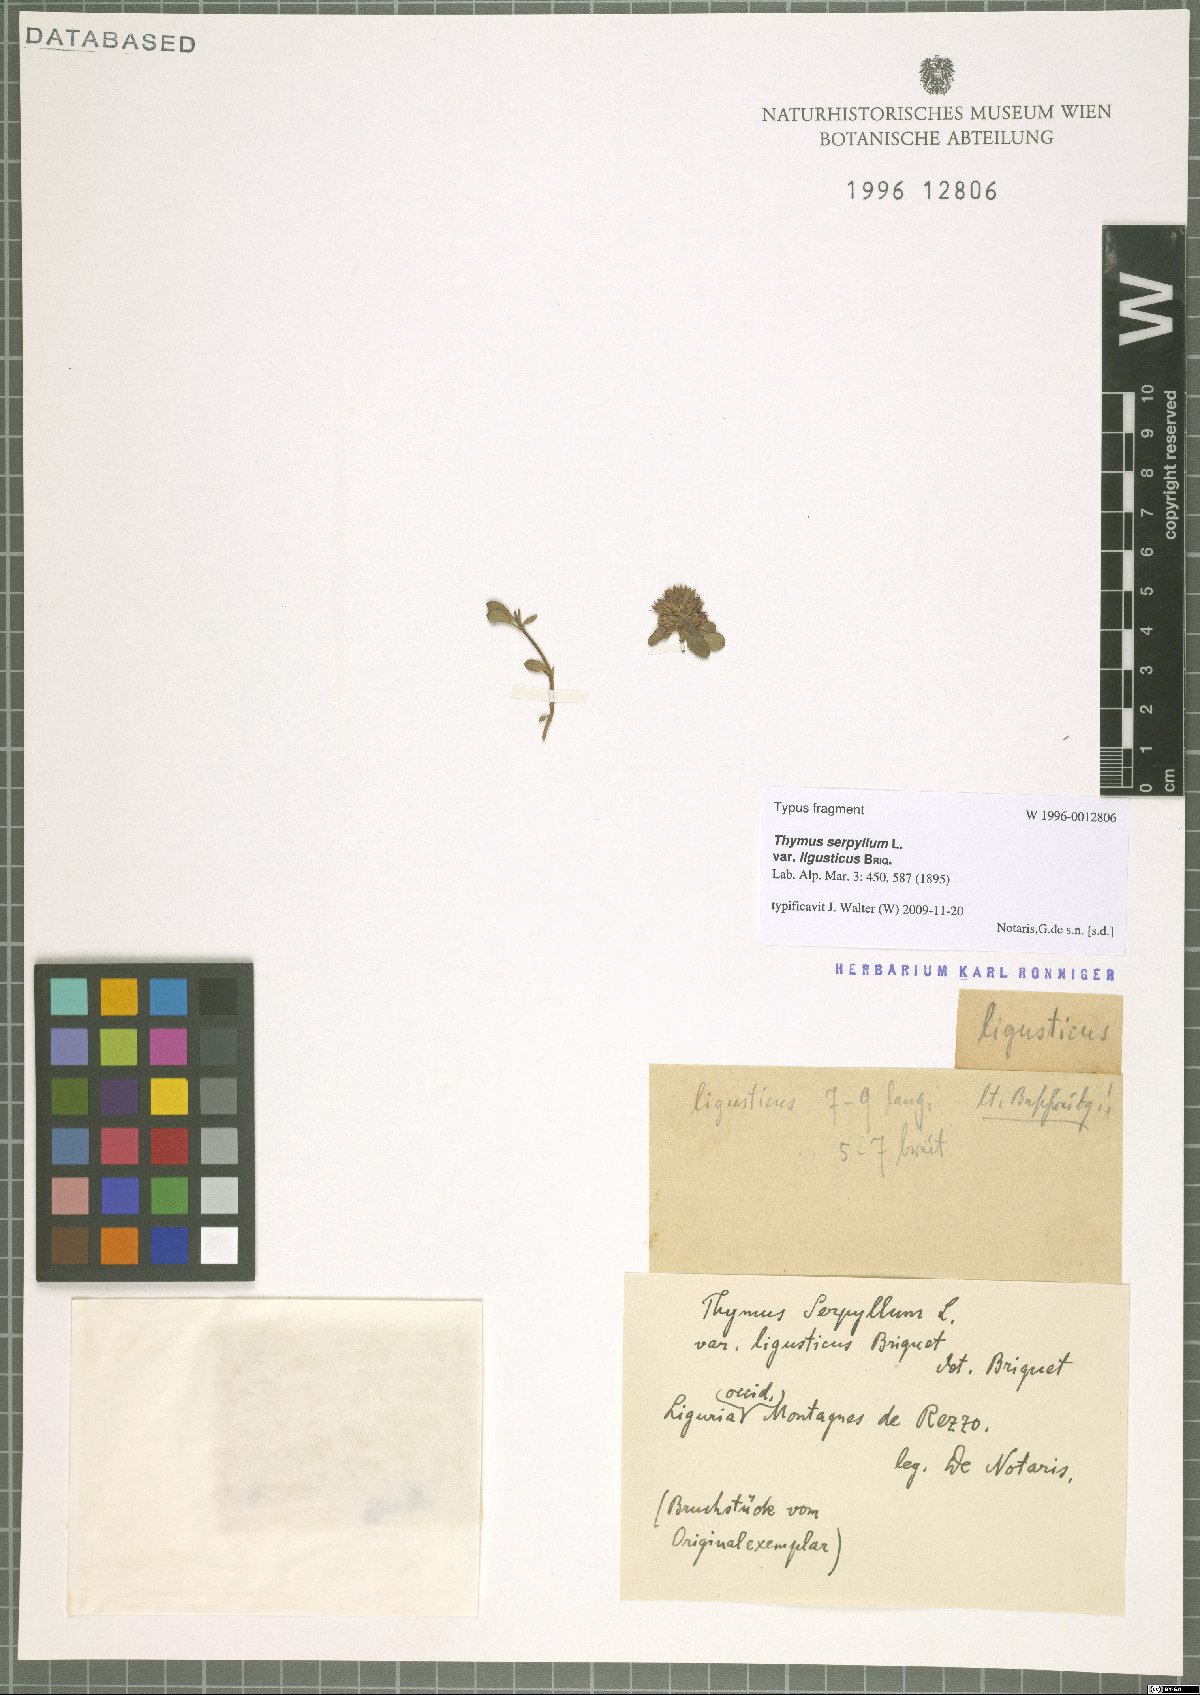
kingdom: Plantae
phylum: Tracheophyta
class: Magnoliopsida
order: Lamiales
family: Lamiaceae
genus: Thymus
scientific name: Thymus praecox
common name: Wild thyme
